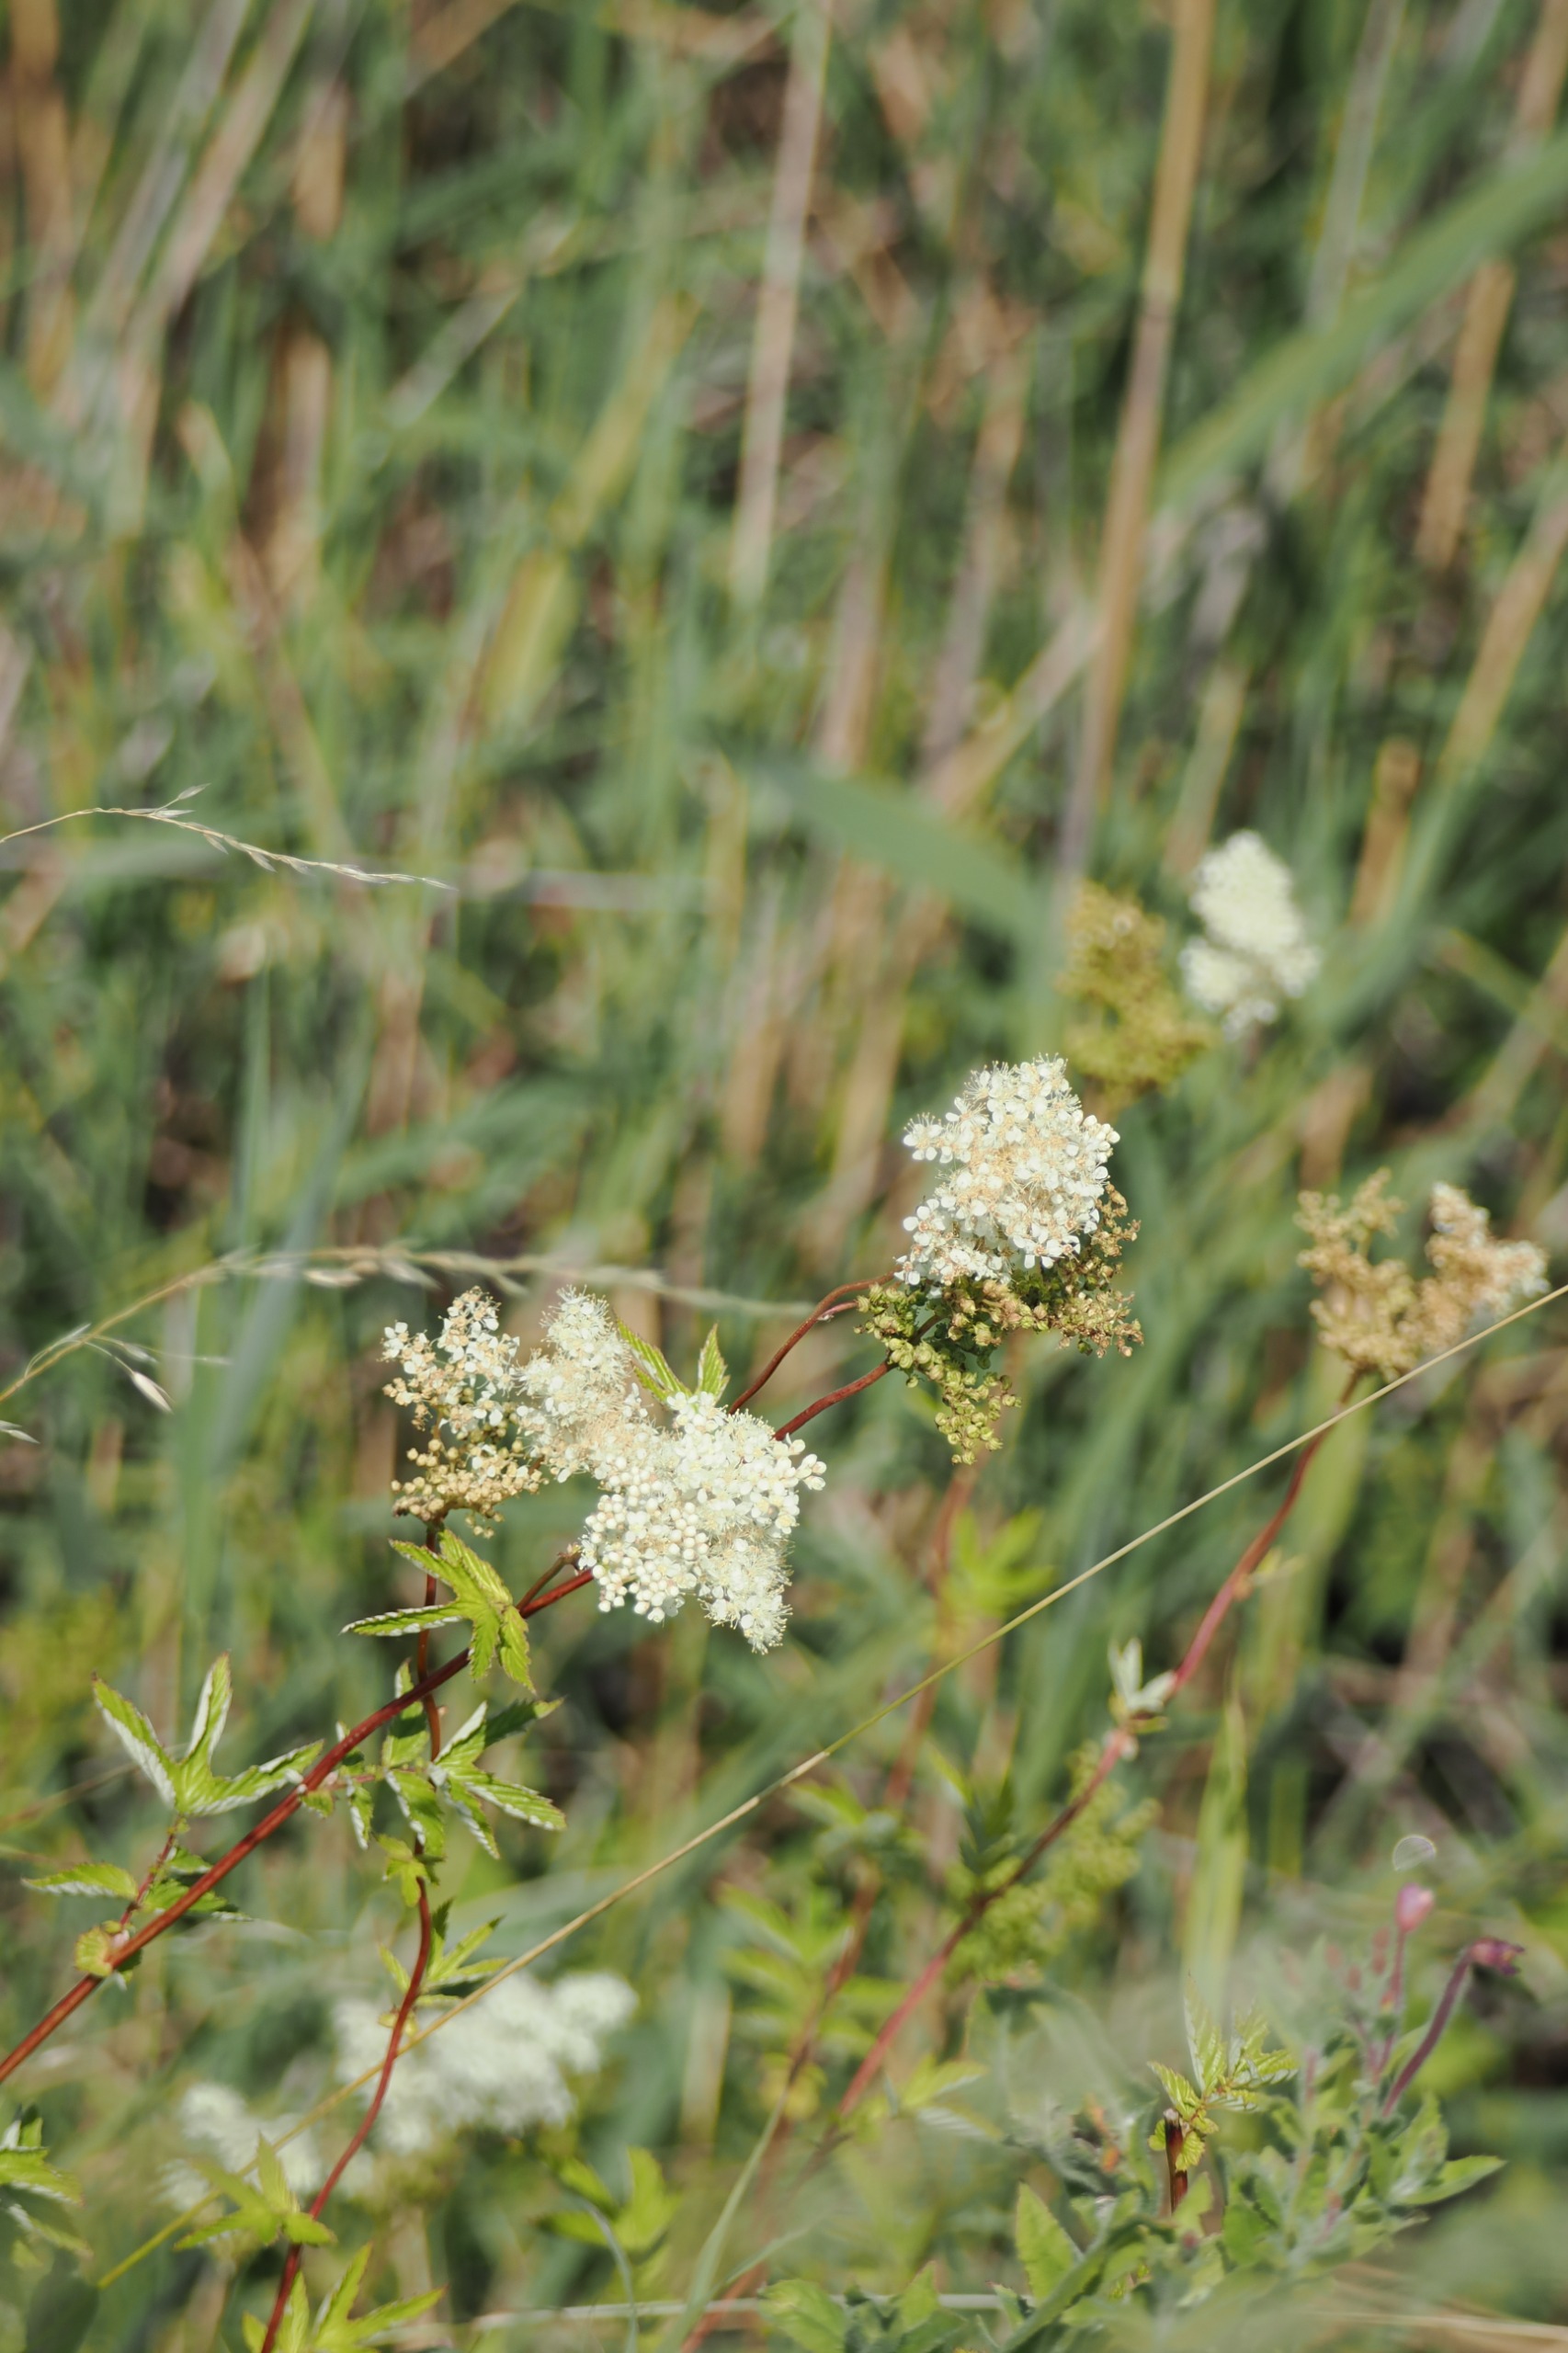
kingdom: Plantae
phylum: Tracheophyta
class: Magnoliopsida
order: Rosales
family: Rosaceae
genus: Filipendula
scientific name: Filipendula ulmaria
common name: Almindelig mjødurt
